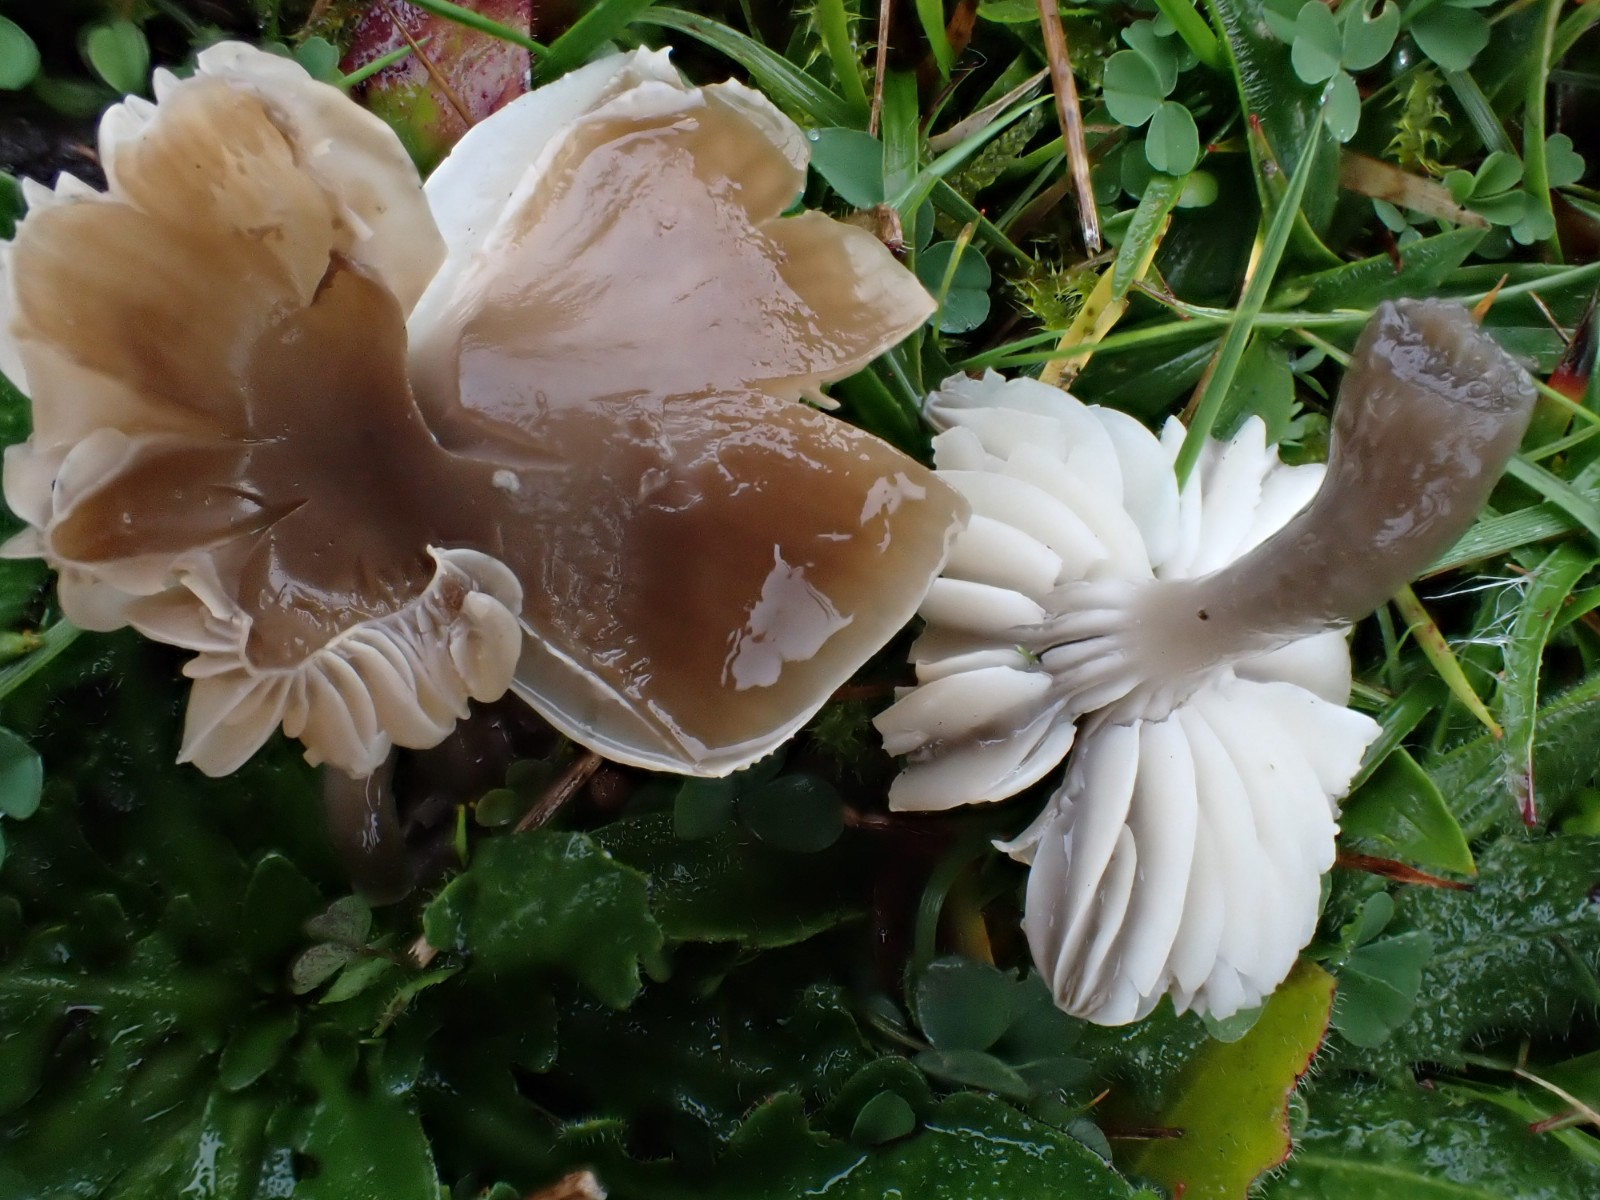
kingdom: Fungi
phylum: Basidiomycota
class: Agaricomycetes
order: Agaricales
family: Hygrophoraceae
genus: Gliophorus
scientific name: Gliophorus irrigatus
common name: slimet vokshat
